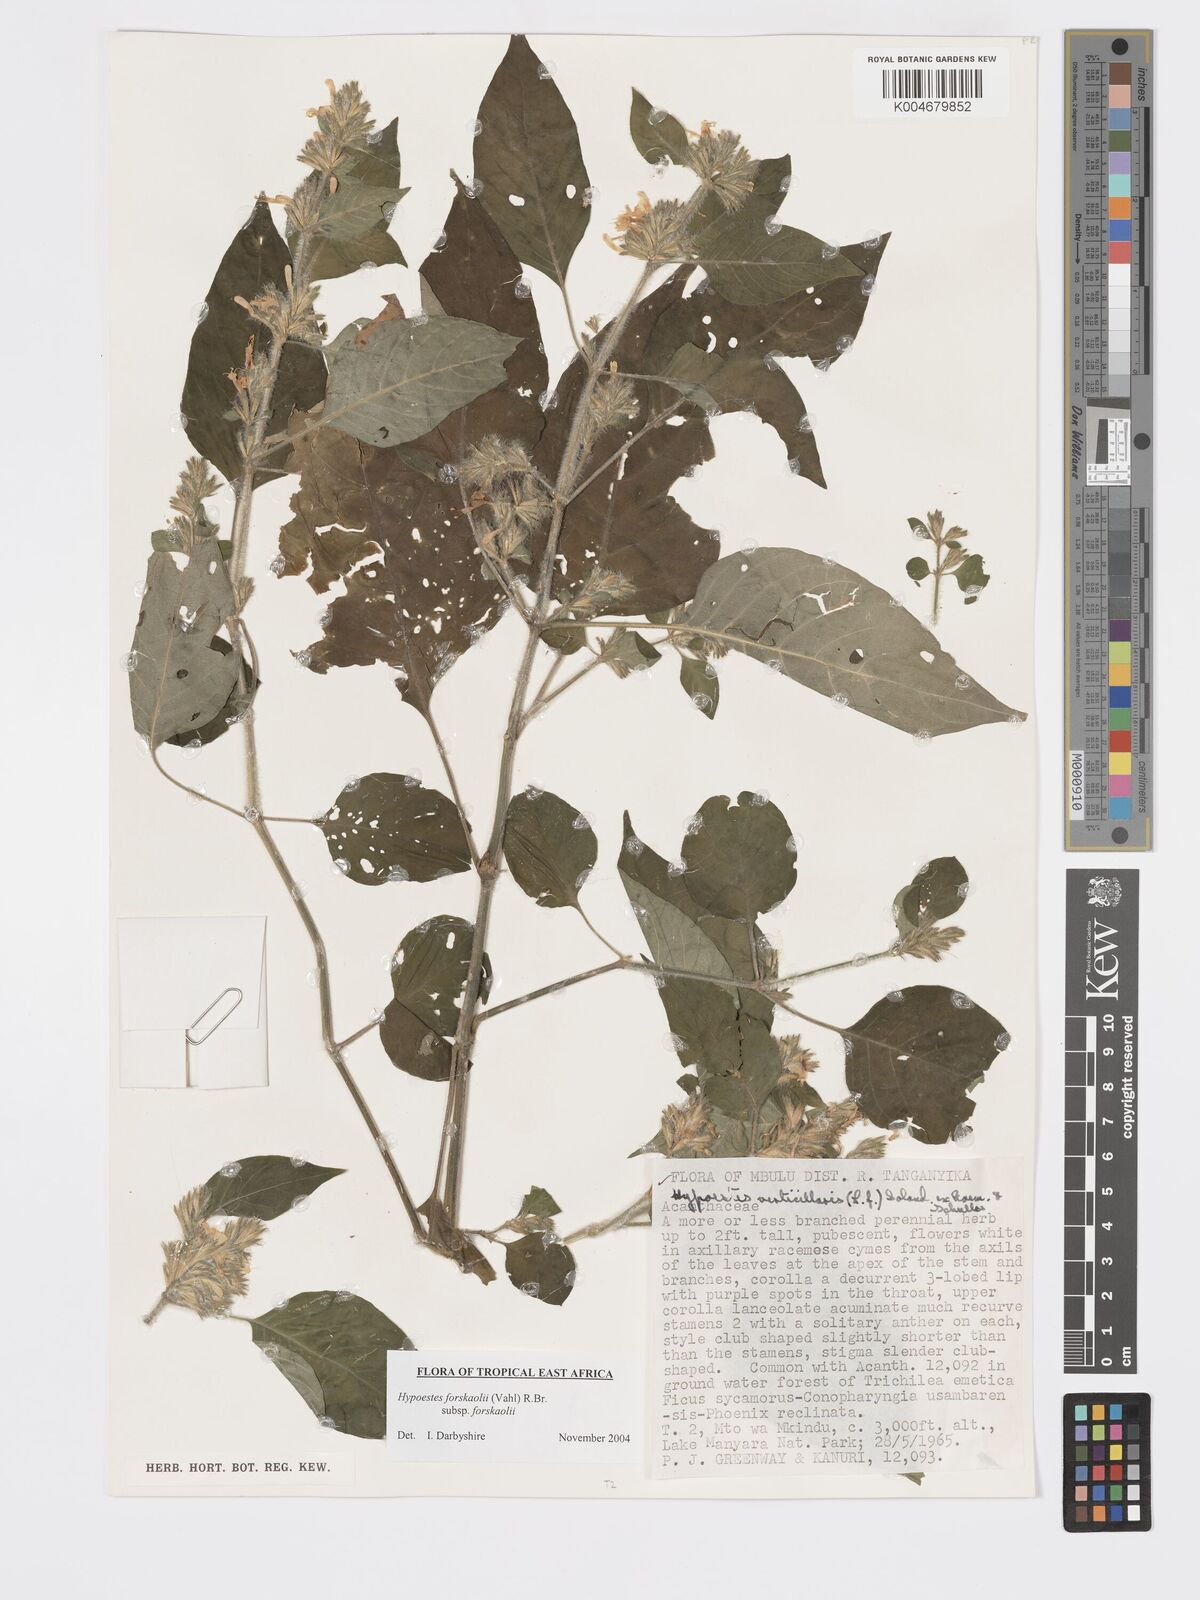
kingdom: Plantae
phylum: Tracheophyta
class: Magnoliopsida
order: Lamiales
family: Acanthaceae
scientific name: Acanthaceae
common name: Acanthaceae
